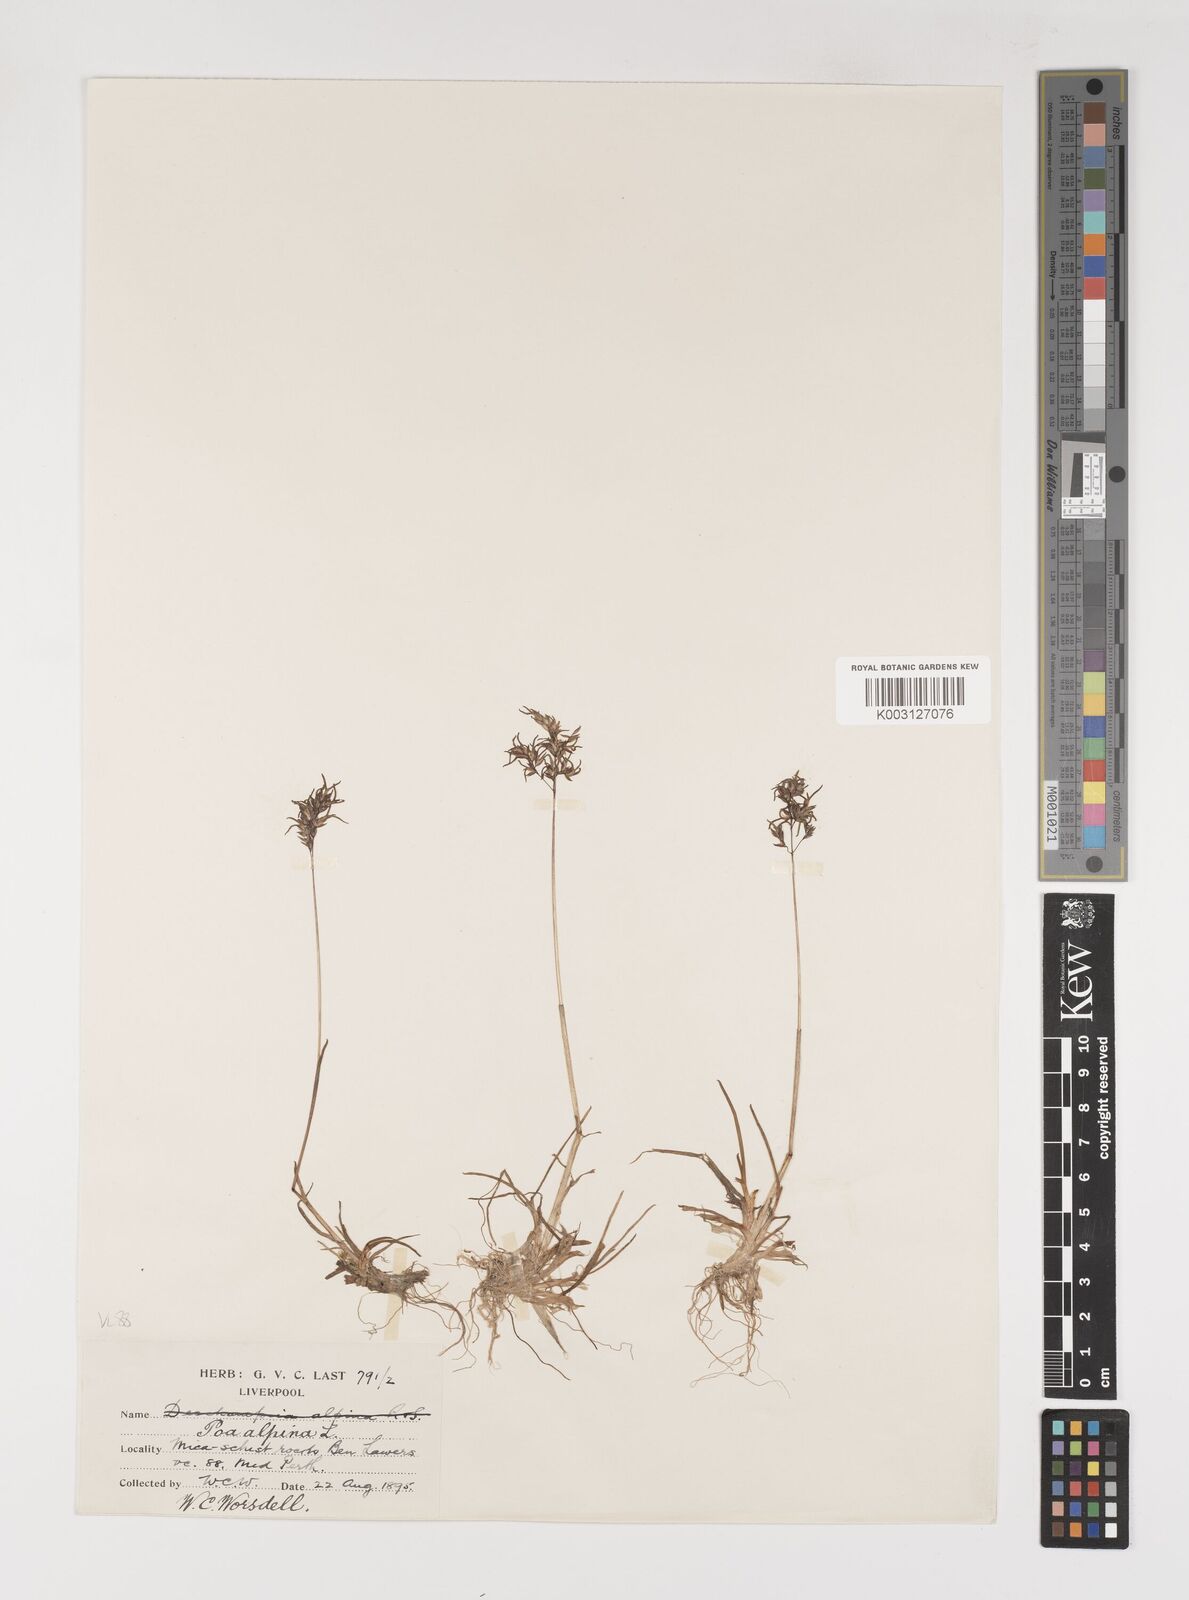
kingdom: Plantae
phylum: Tracheophyta
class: Liliopsida
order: Poales
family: Poaceae
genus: Poa
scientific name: Poa alpina
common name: Alpine bluegrass
